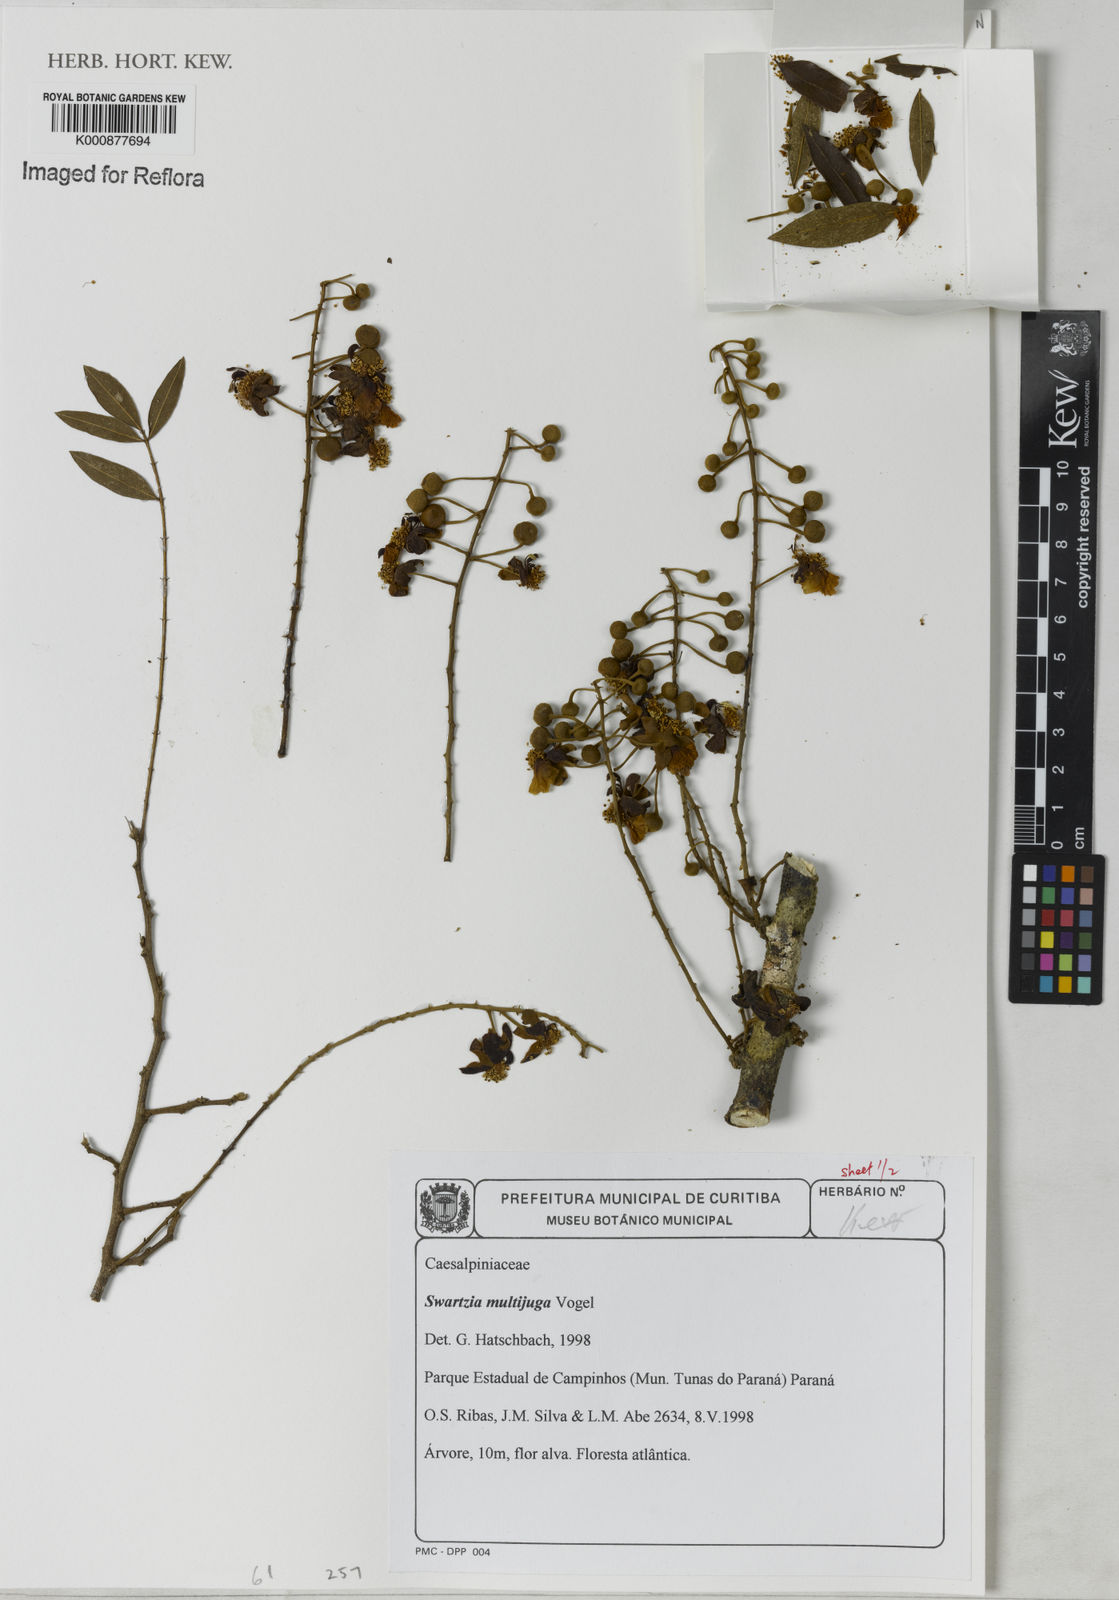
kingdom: Plantae
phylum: Tracheophyta
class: Magnoliopsida
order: Fabales
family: Fabaceae
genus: Swartzia
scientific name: Swartzia multijuga
